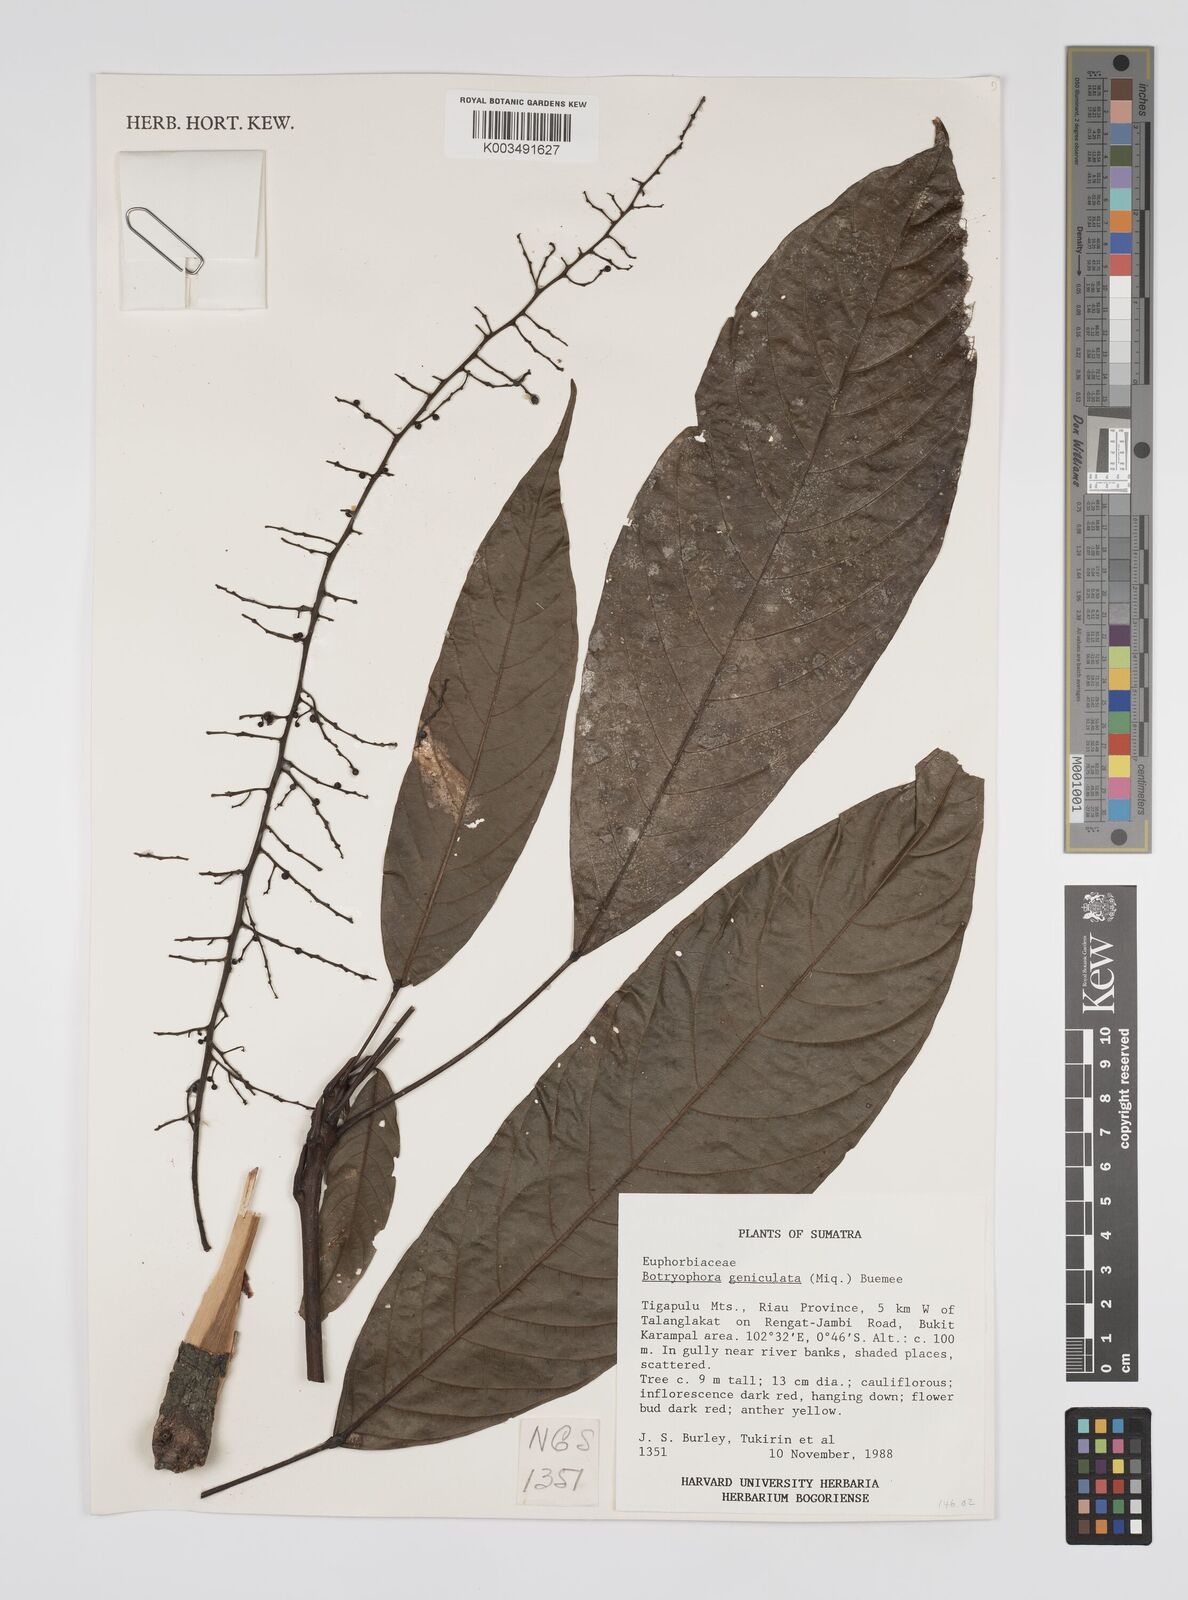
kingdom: Plantae
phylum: Tracheophyta
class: Magnoliopsida
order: Malpighiales
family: Euphorbiaceae
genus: Botryophora
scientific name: Botryophora geniculata
